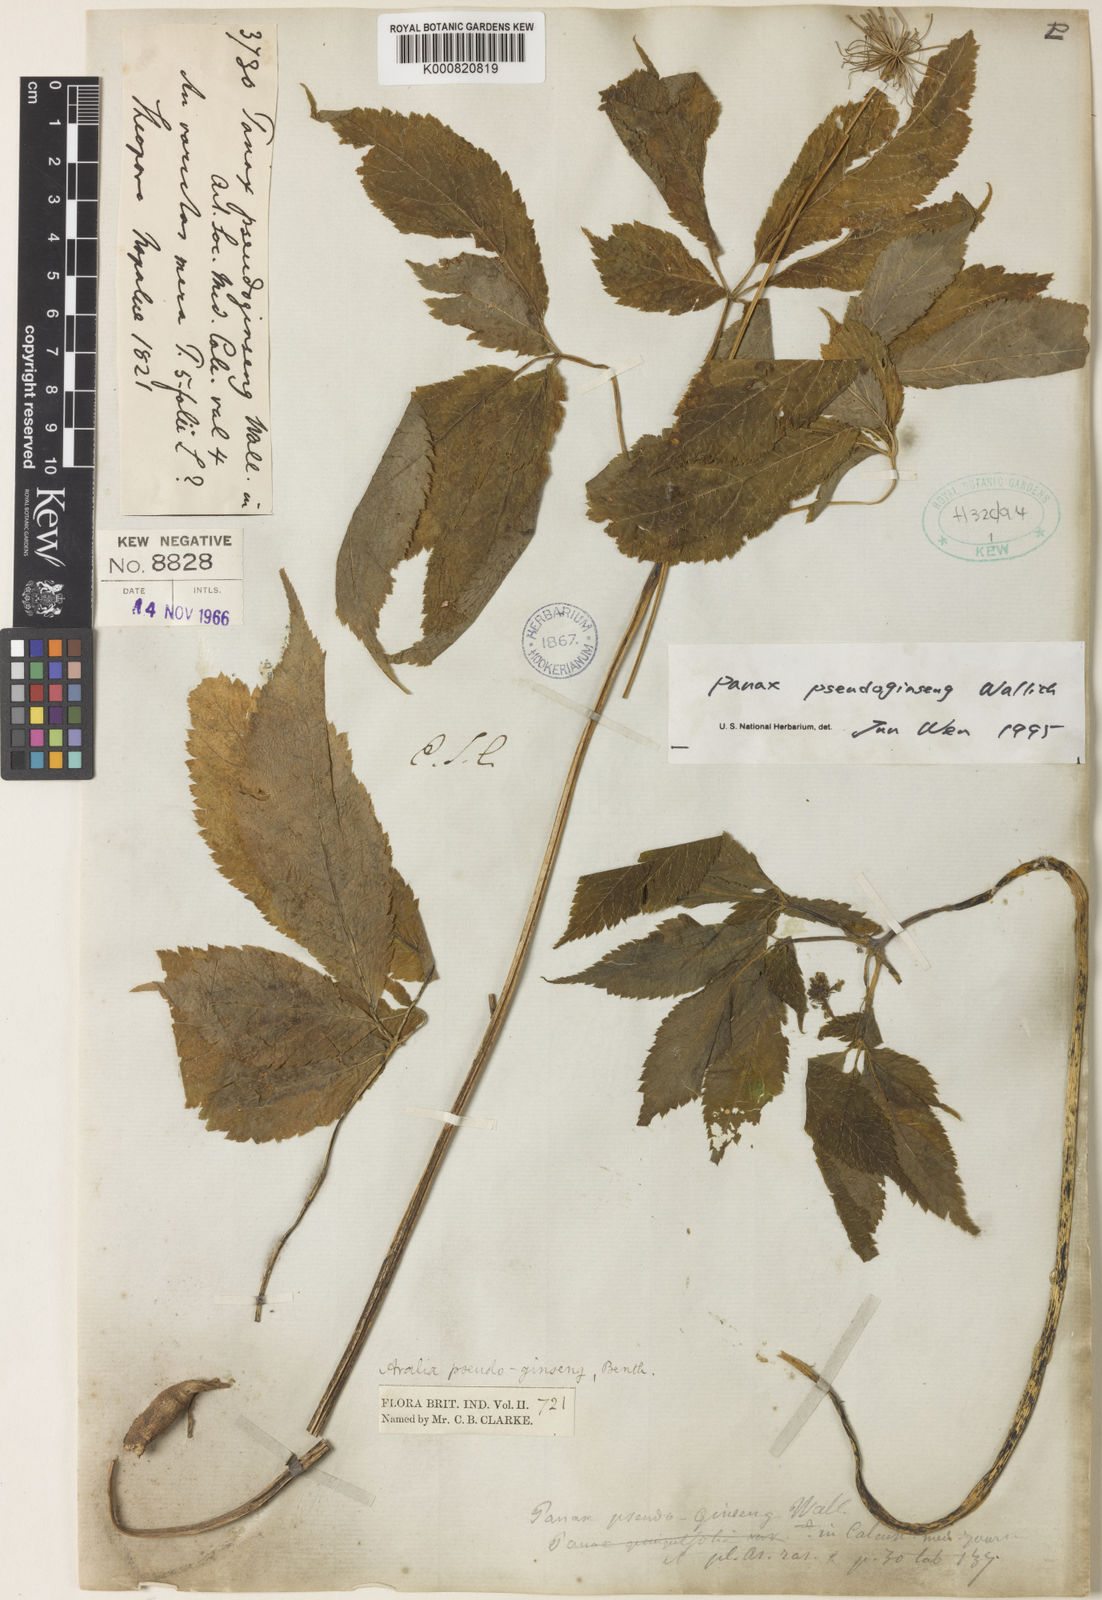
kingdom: Plantae
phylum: Tracheophyta
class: Magnoliopsida
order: Apiales
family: Araliaceae
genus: Panax
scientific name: Panax pseudoginseng
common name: Pseudoginseng
